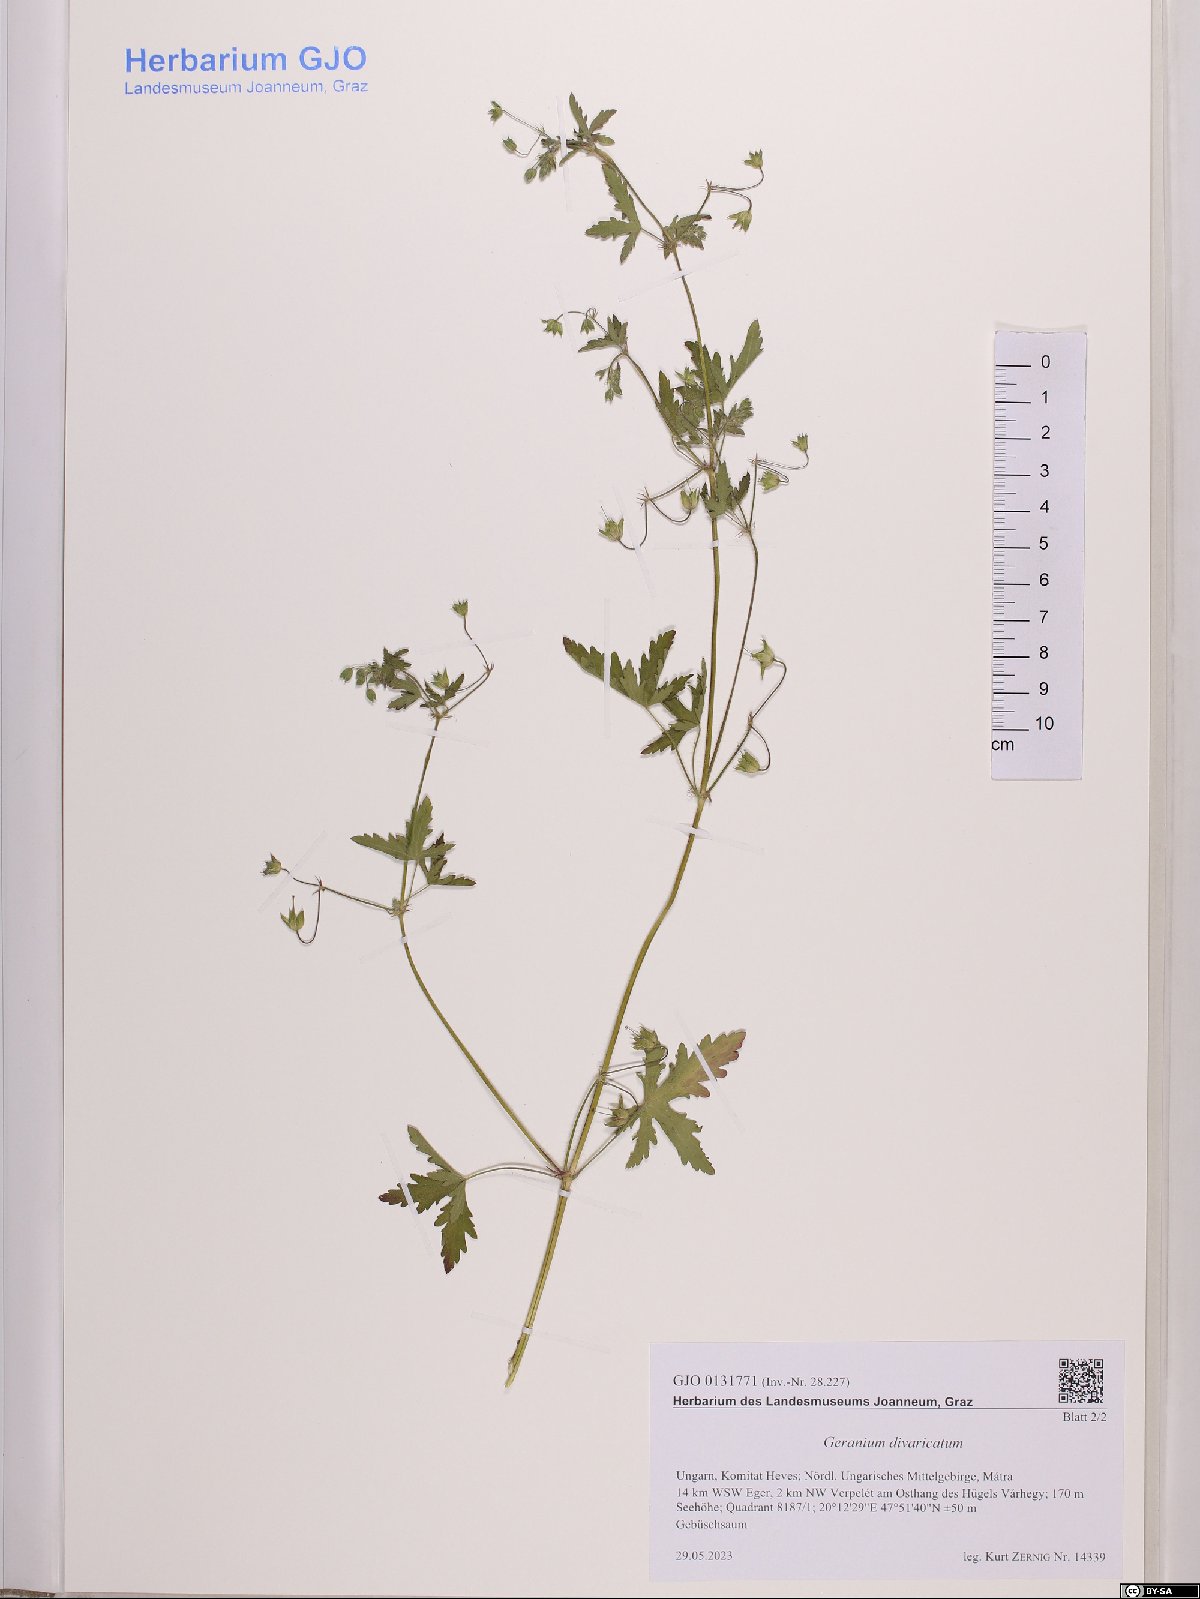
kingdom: Plantae
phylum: Tracheophyta
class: Magnoliopsida
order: Geraniales
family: Geraniaceae
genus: Geranium
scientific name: Geranium divaricatum
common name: Spreading crane's-bill
